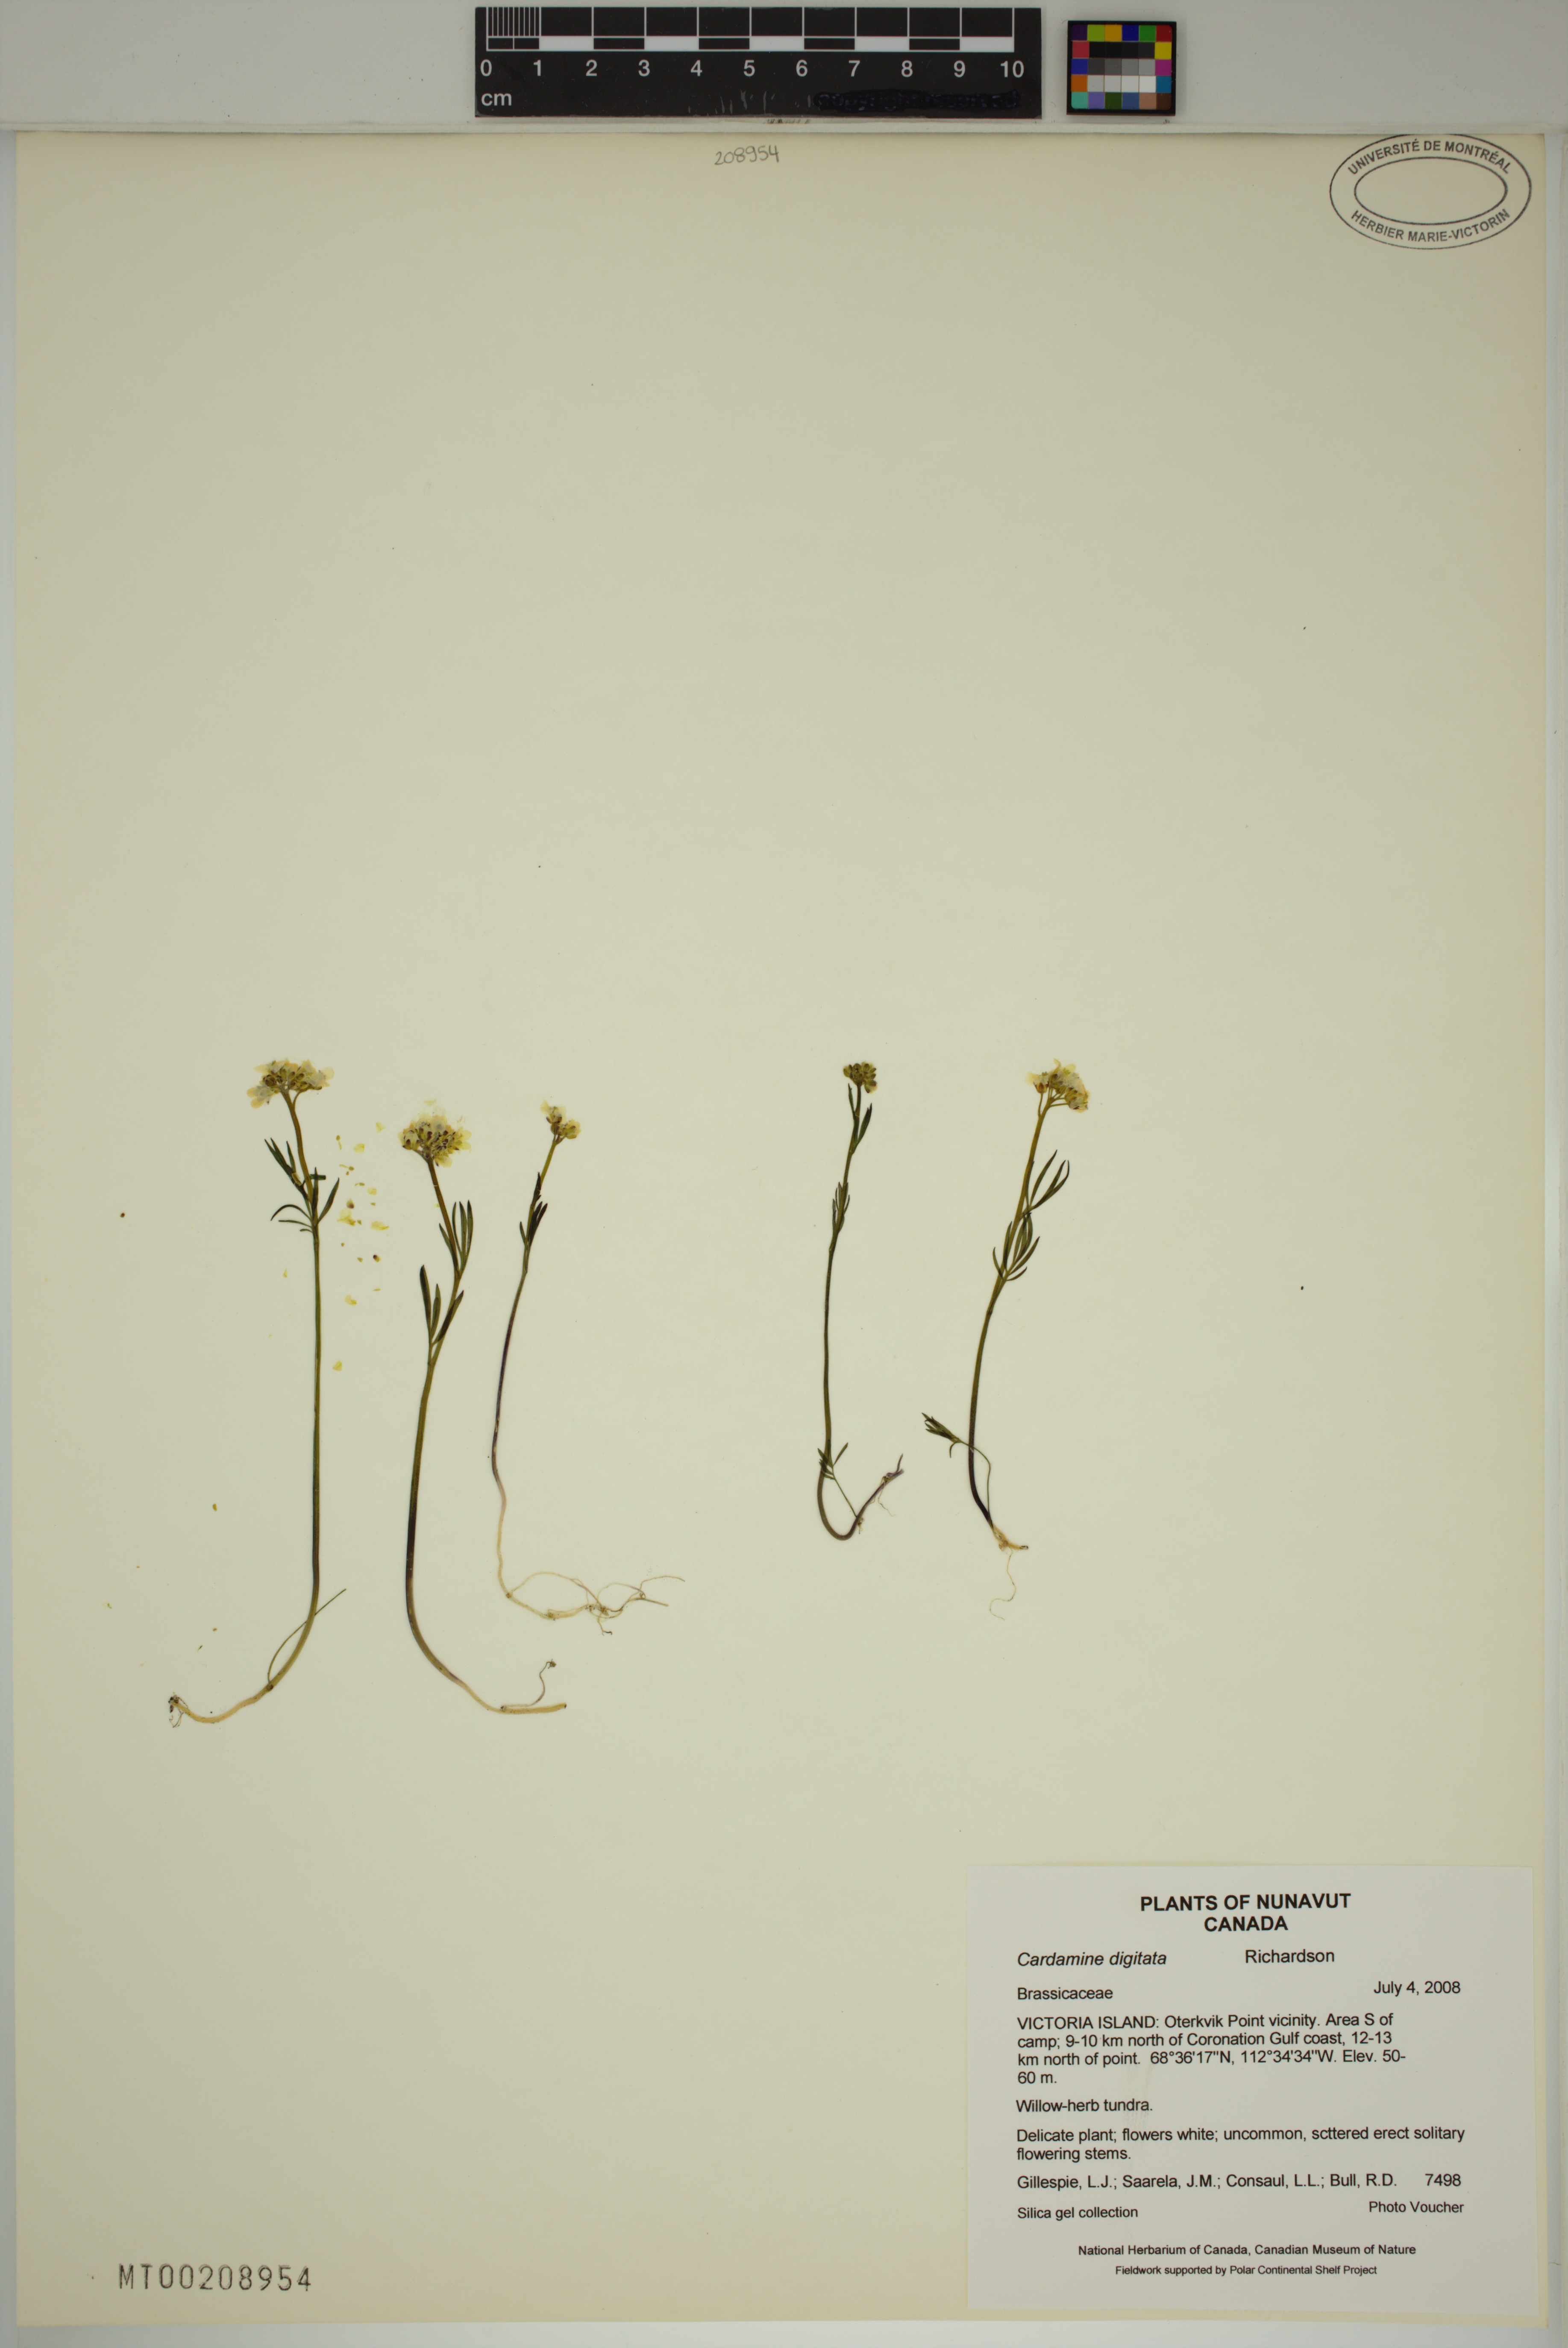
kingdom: Plantae
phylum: Tracheophyta
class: Magnoliopsida
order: Brassicales
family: Brassicaceae
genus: Cardamine
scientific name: Cardamine digitata
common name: Richardson's bittercress
